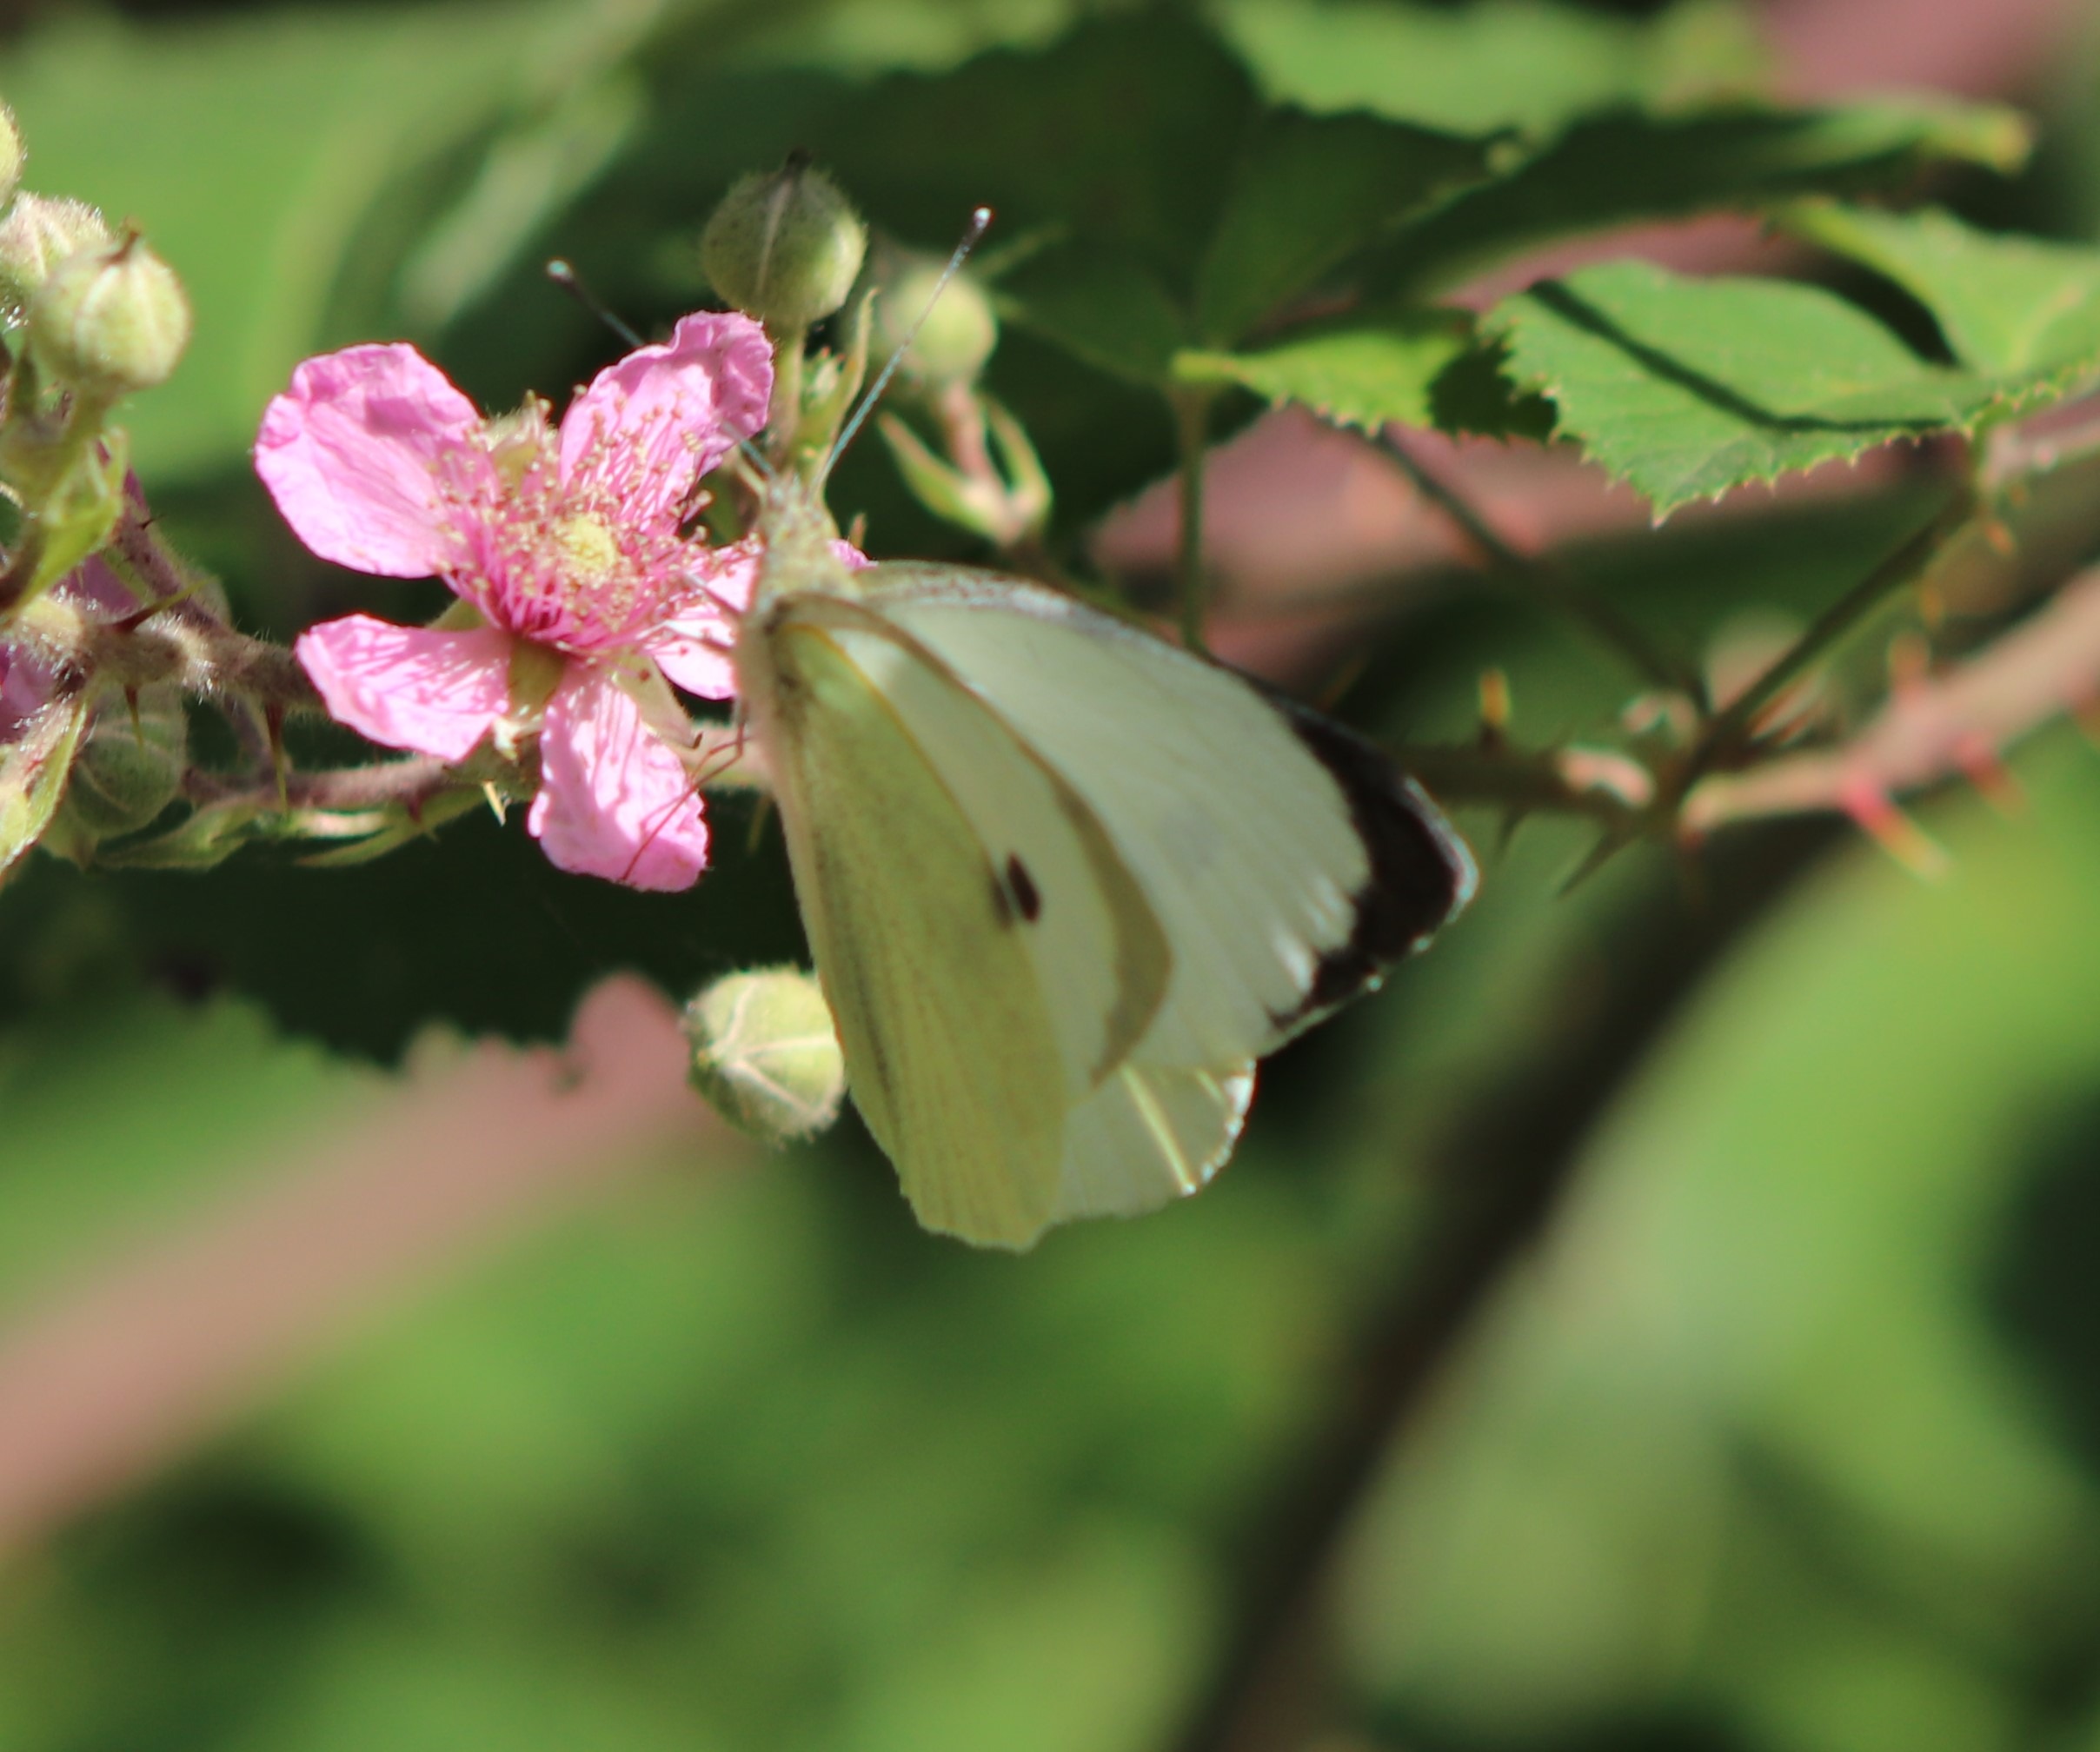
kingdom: Animalia
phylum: Arthropoda
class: Insecta
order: Lepidoptera
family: Pieridae
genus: Pieris
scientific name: Pieris brassicae
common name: Stor kålsommerfugl
